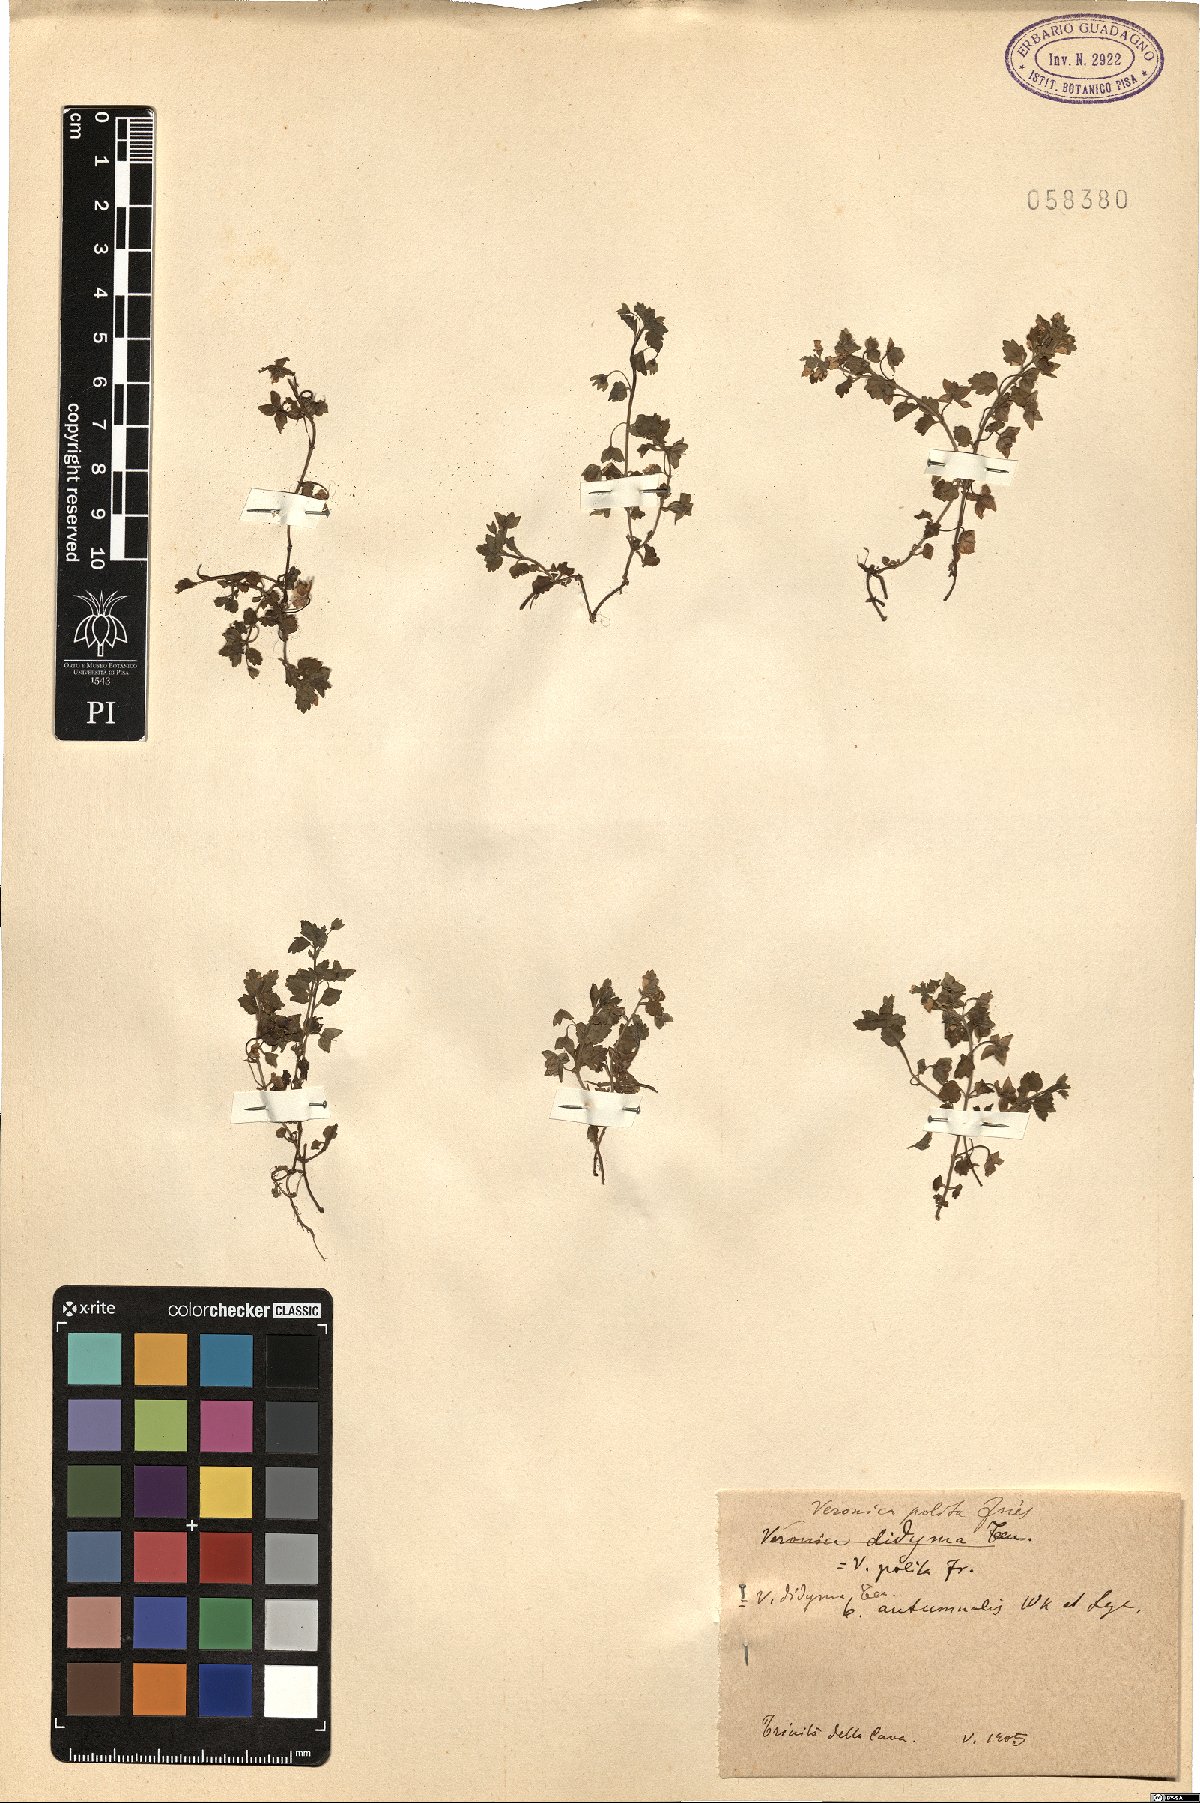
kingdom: Plantae
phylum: Tracheophyta
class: Magnoliopsida
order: Lamiales
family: Plantaginaceae
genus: Veronica
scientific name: Veronica polita
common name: Grey field-speedwell
